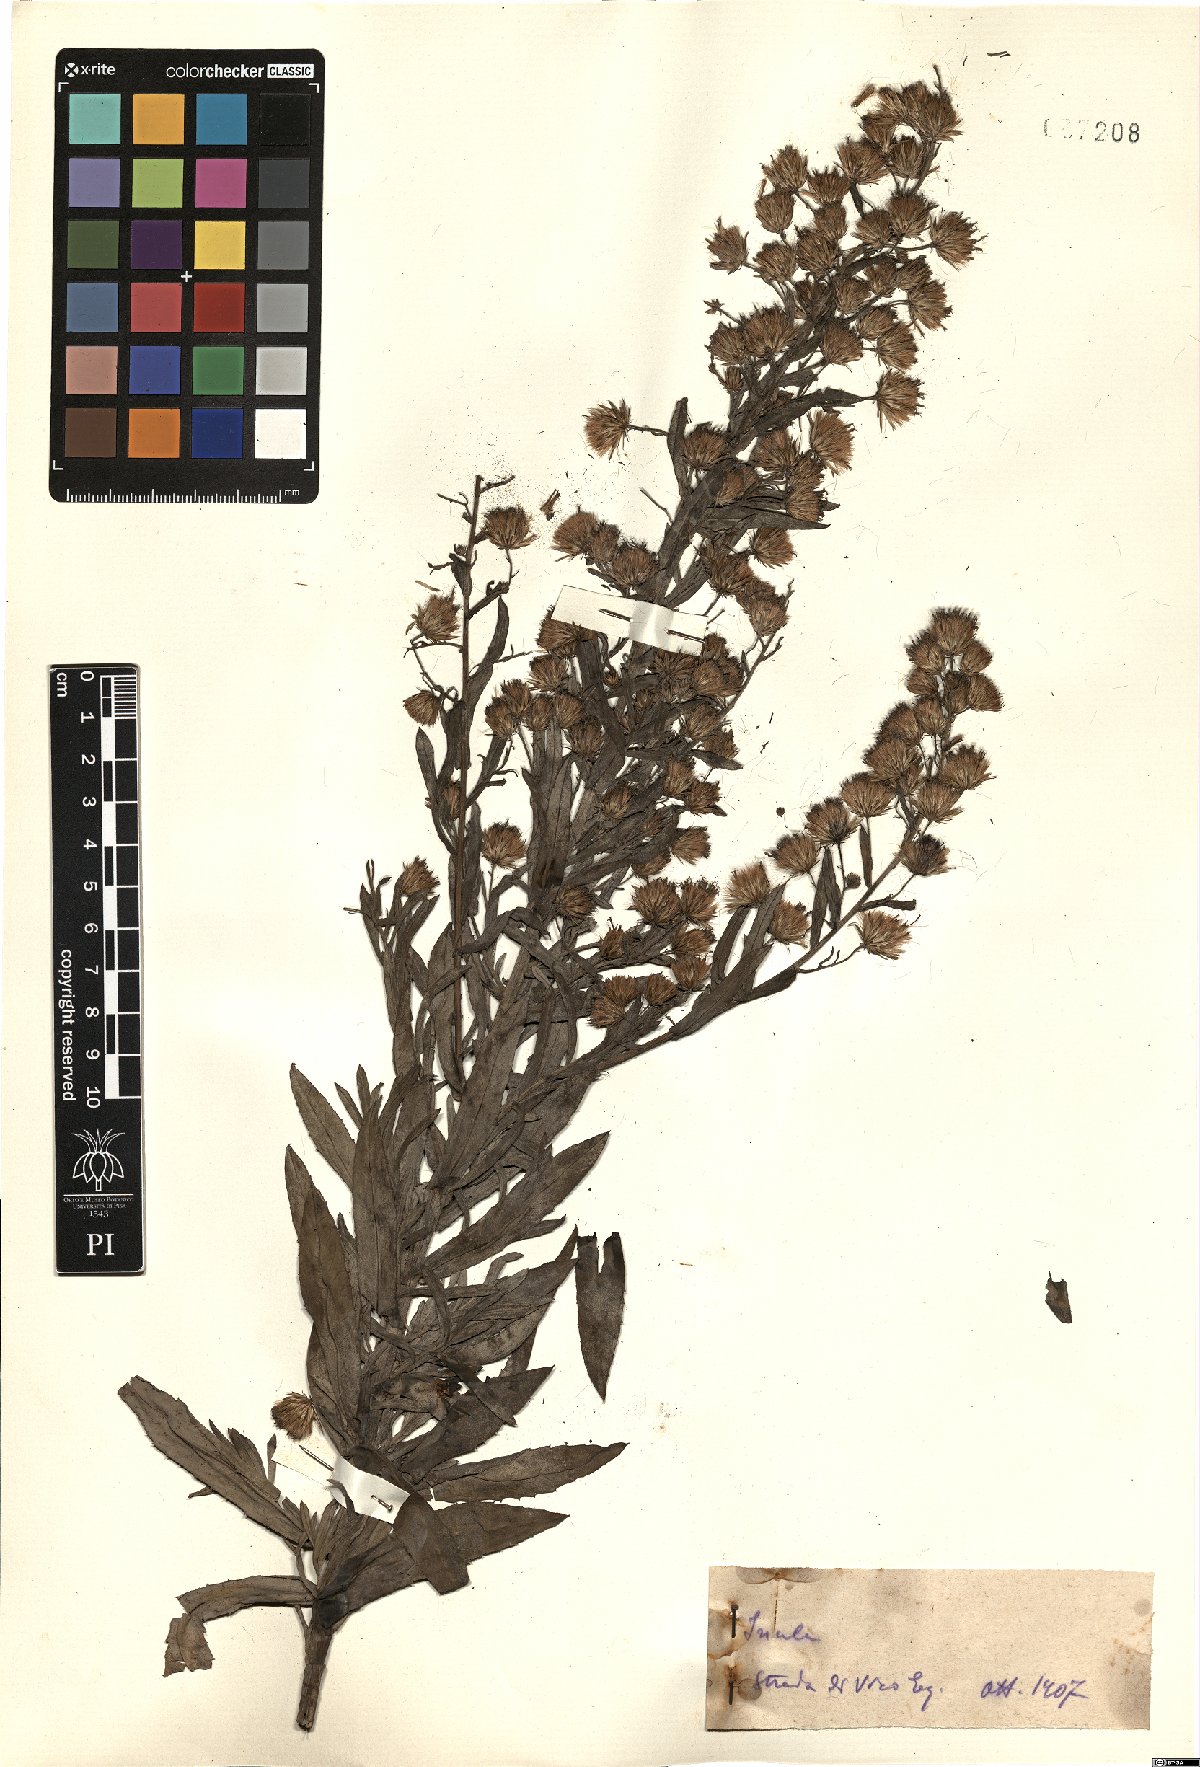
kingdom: Plantae
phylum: Tracheophyta
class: Magnoliopsida
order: Asterales
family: Asteraceae
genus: Inula
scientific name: Inula
